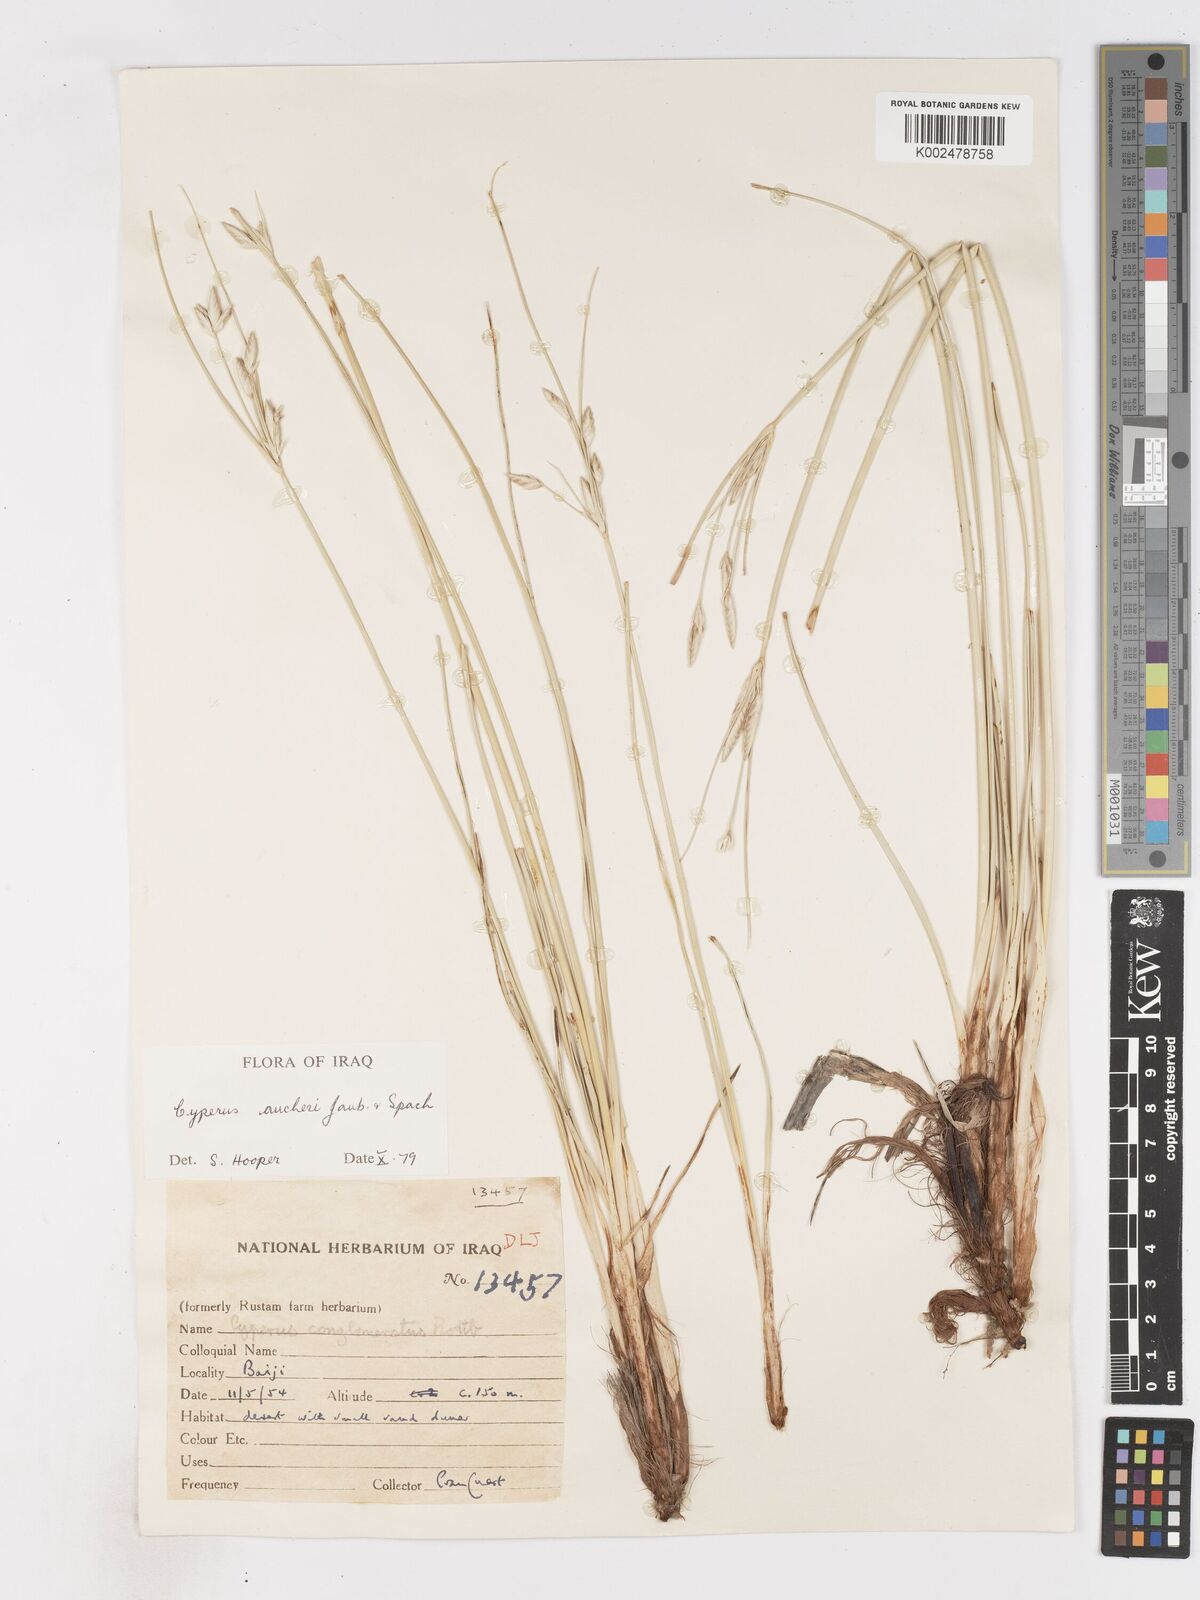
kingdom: Plantae
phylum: Tracheophyta
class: Liliopsida
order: Poales
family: Cyperaceae
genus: Cyperus
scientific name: Cyperus aucheri
